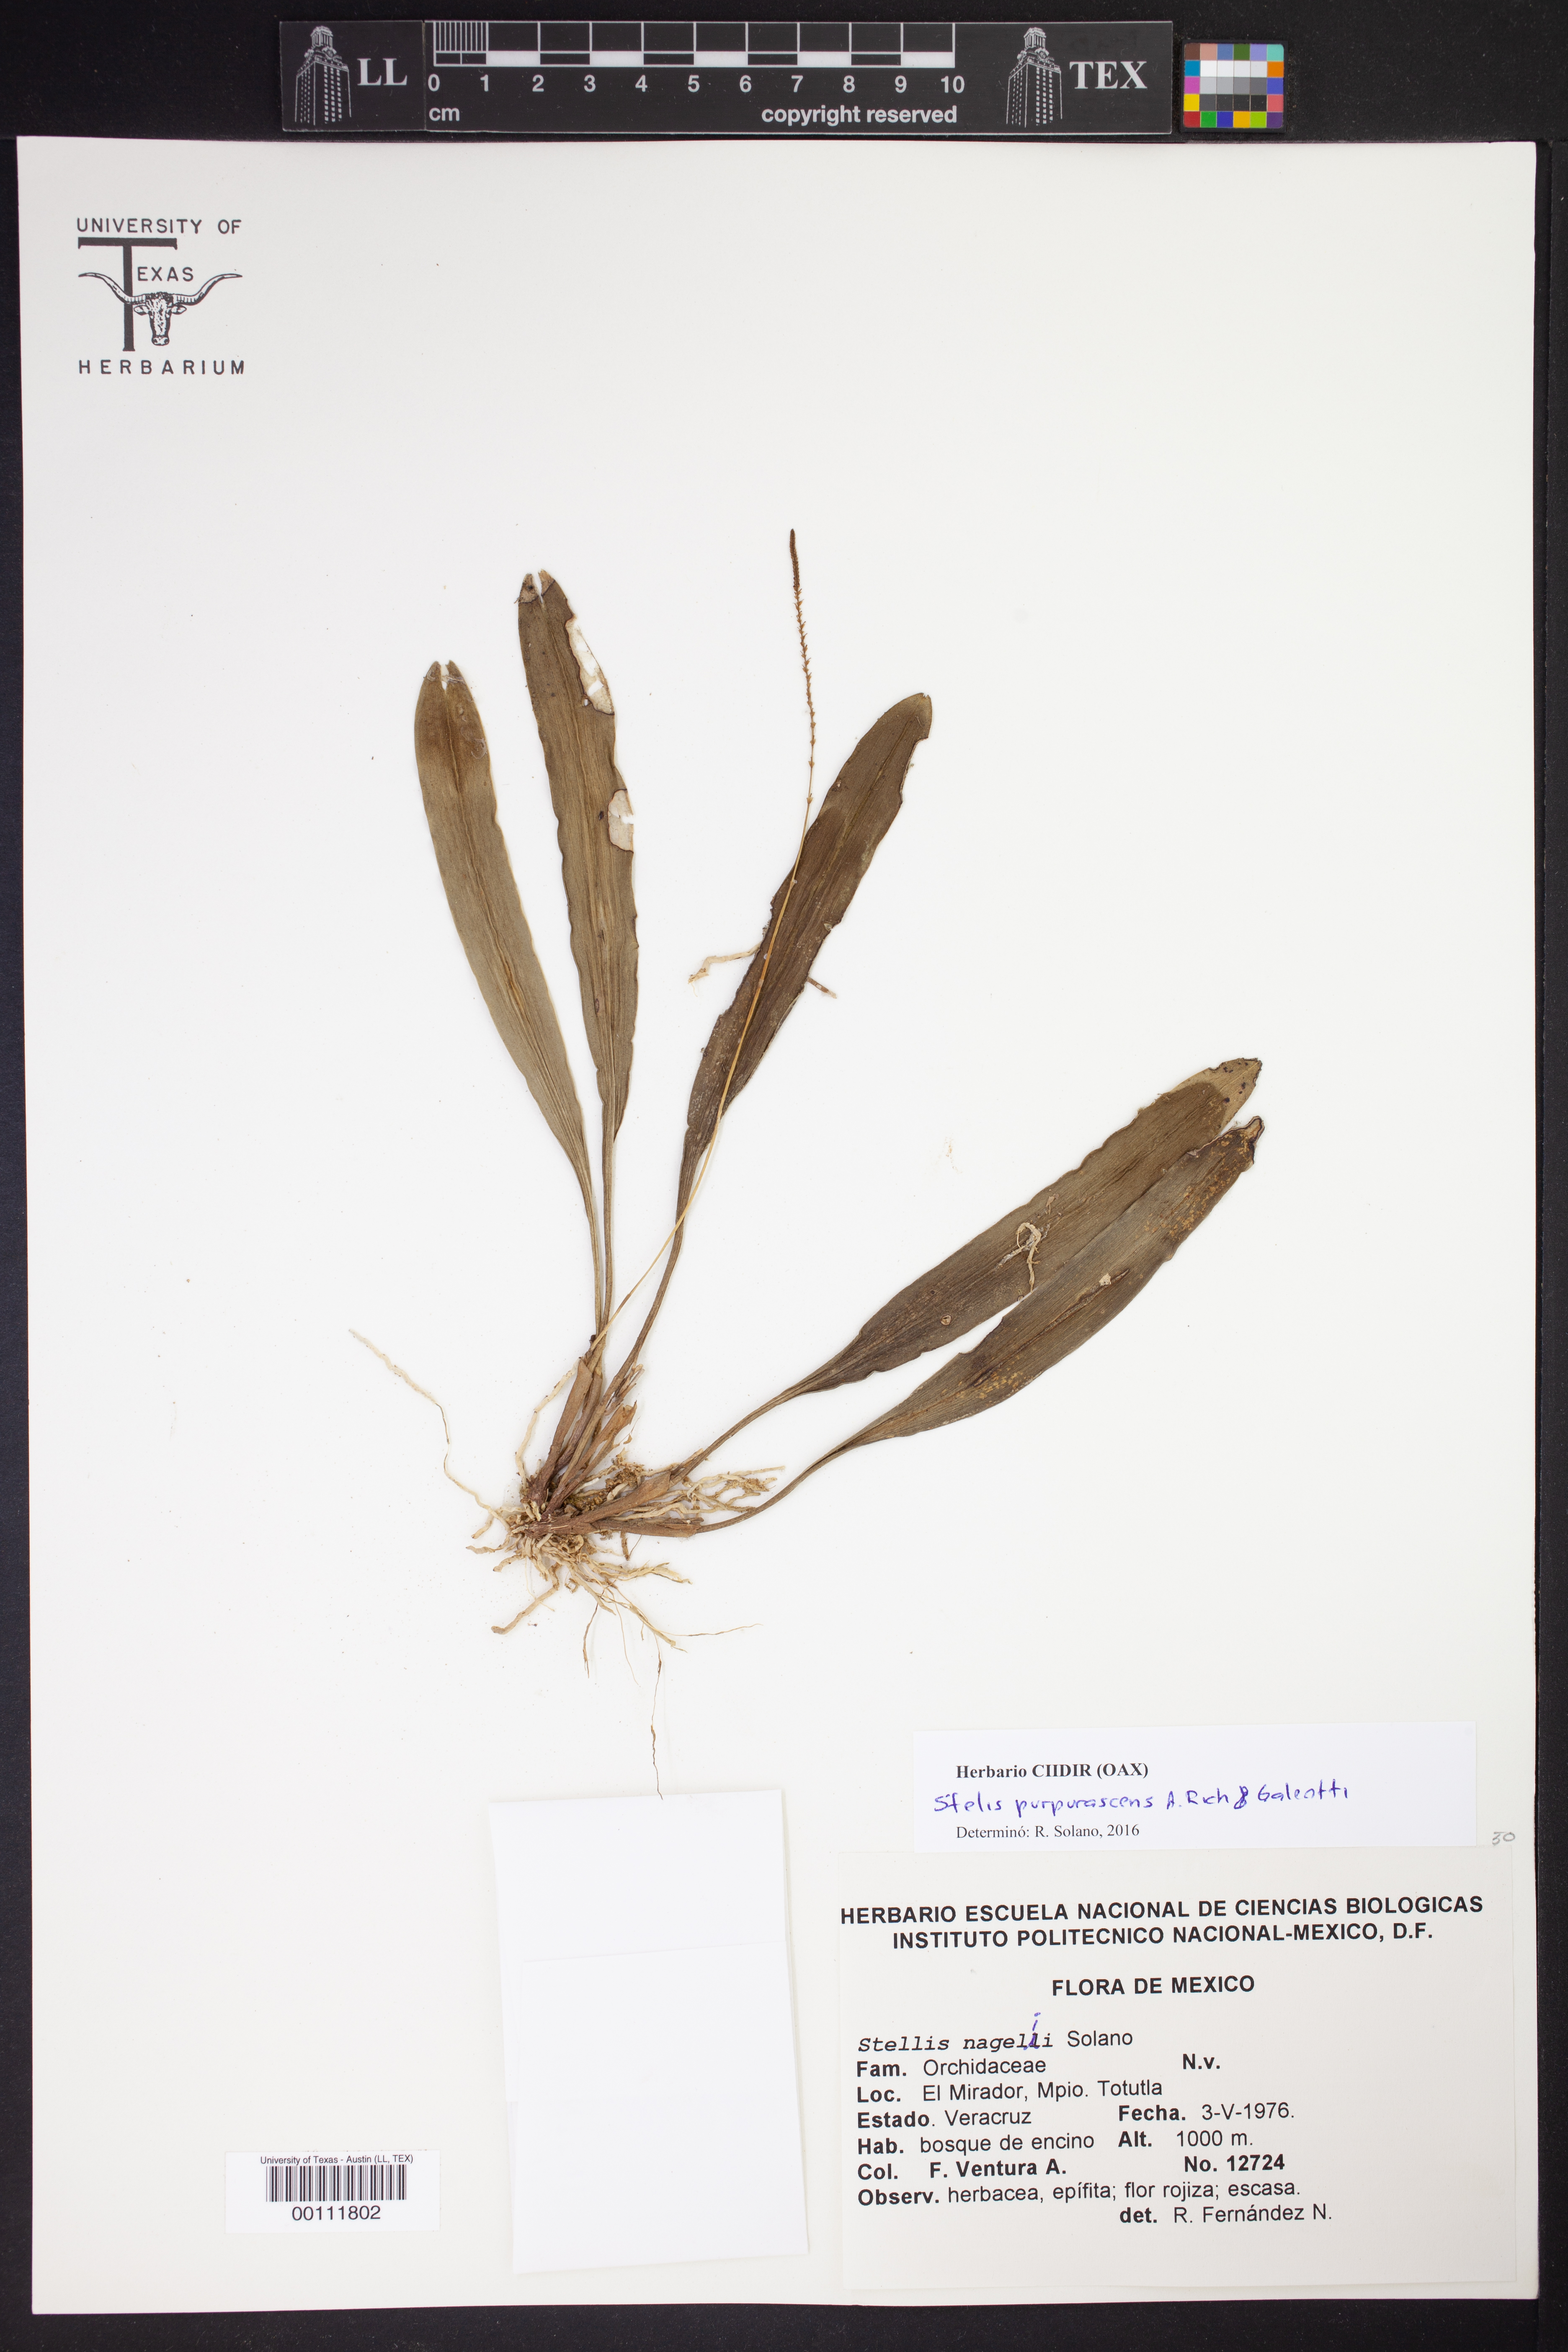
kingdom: Plantae
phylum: Tracheophyta
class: Liliopsida
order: Asparagales
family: Orchidaceae
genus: Stelis
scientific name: Stelis purpurascens
